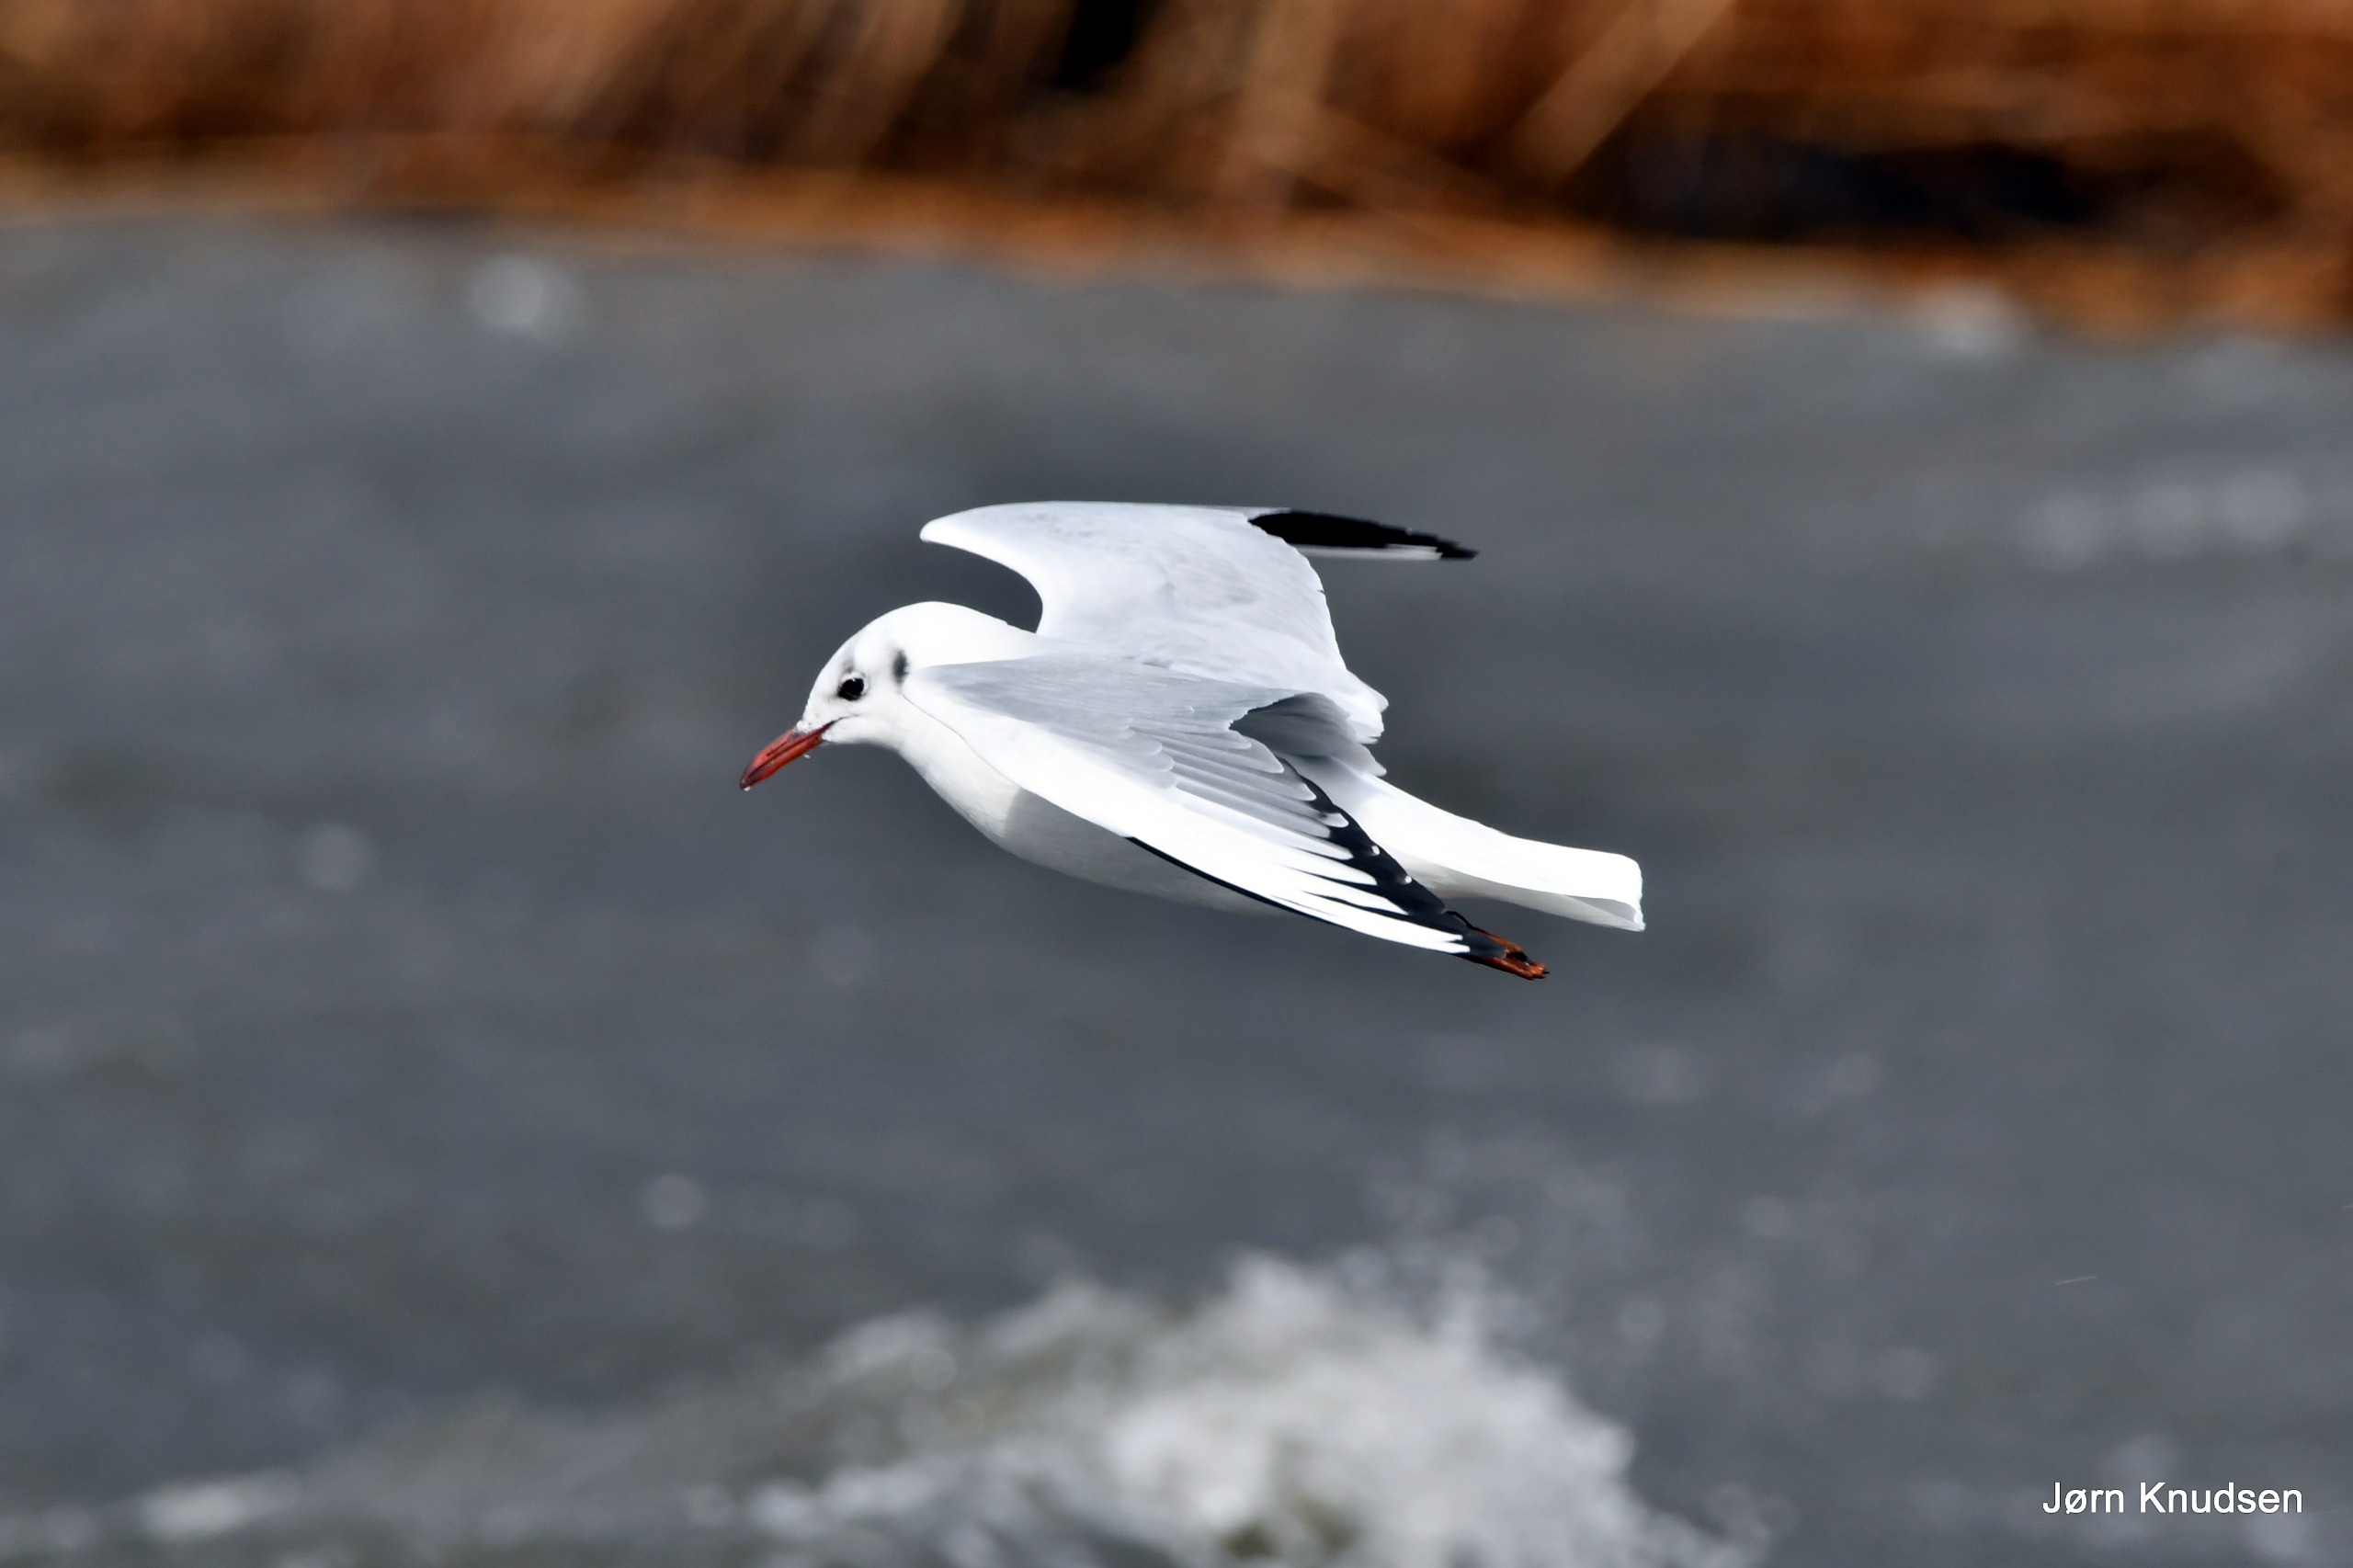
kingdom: Animalia
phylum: Chordata
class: Aves
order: Charadriiformes
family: Laridae
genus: Chroicocephalus
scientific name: Chroicocephalus ridibundus
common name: Hættemåge
